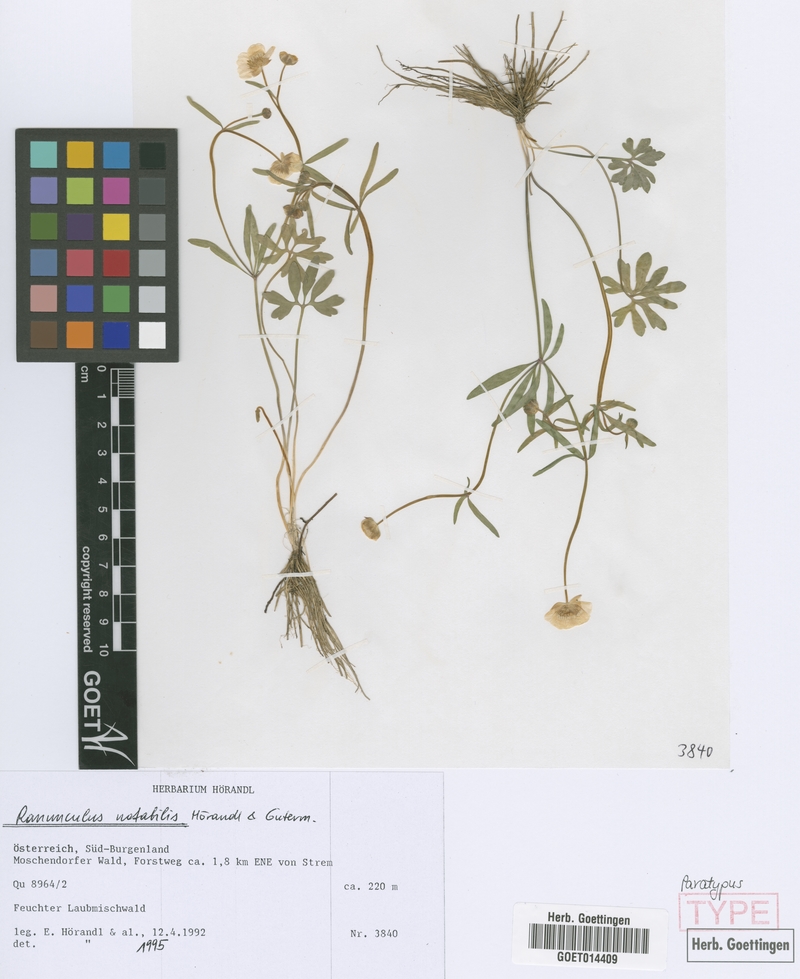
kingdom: Plantae
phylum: Tracheophyta
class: Magnoliopsida
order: Ranunculales
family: Ranunculaceae
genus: Ranunculus
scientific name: Ranunculus notabilis
